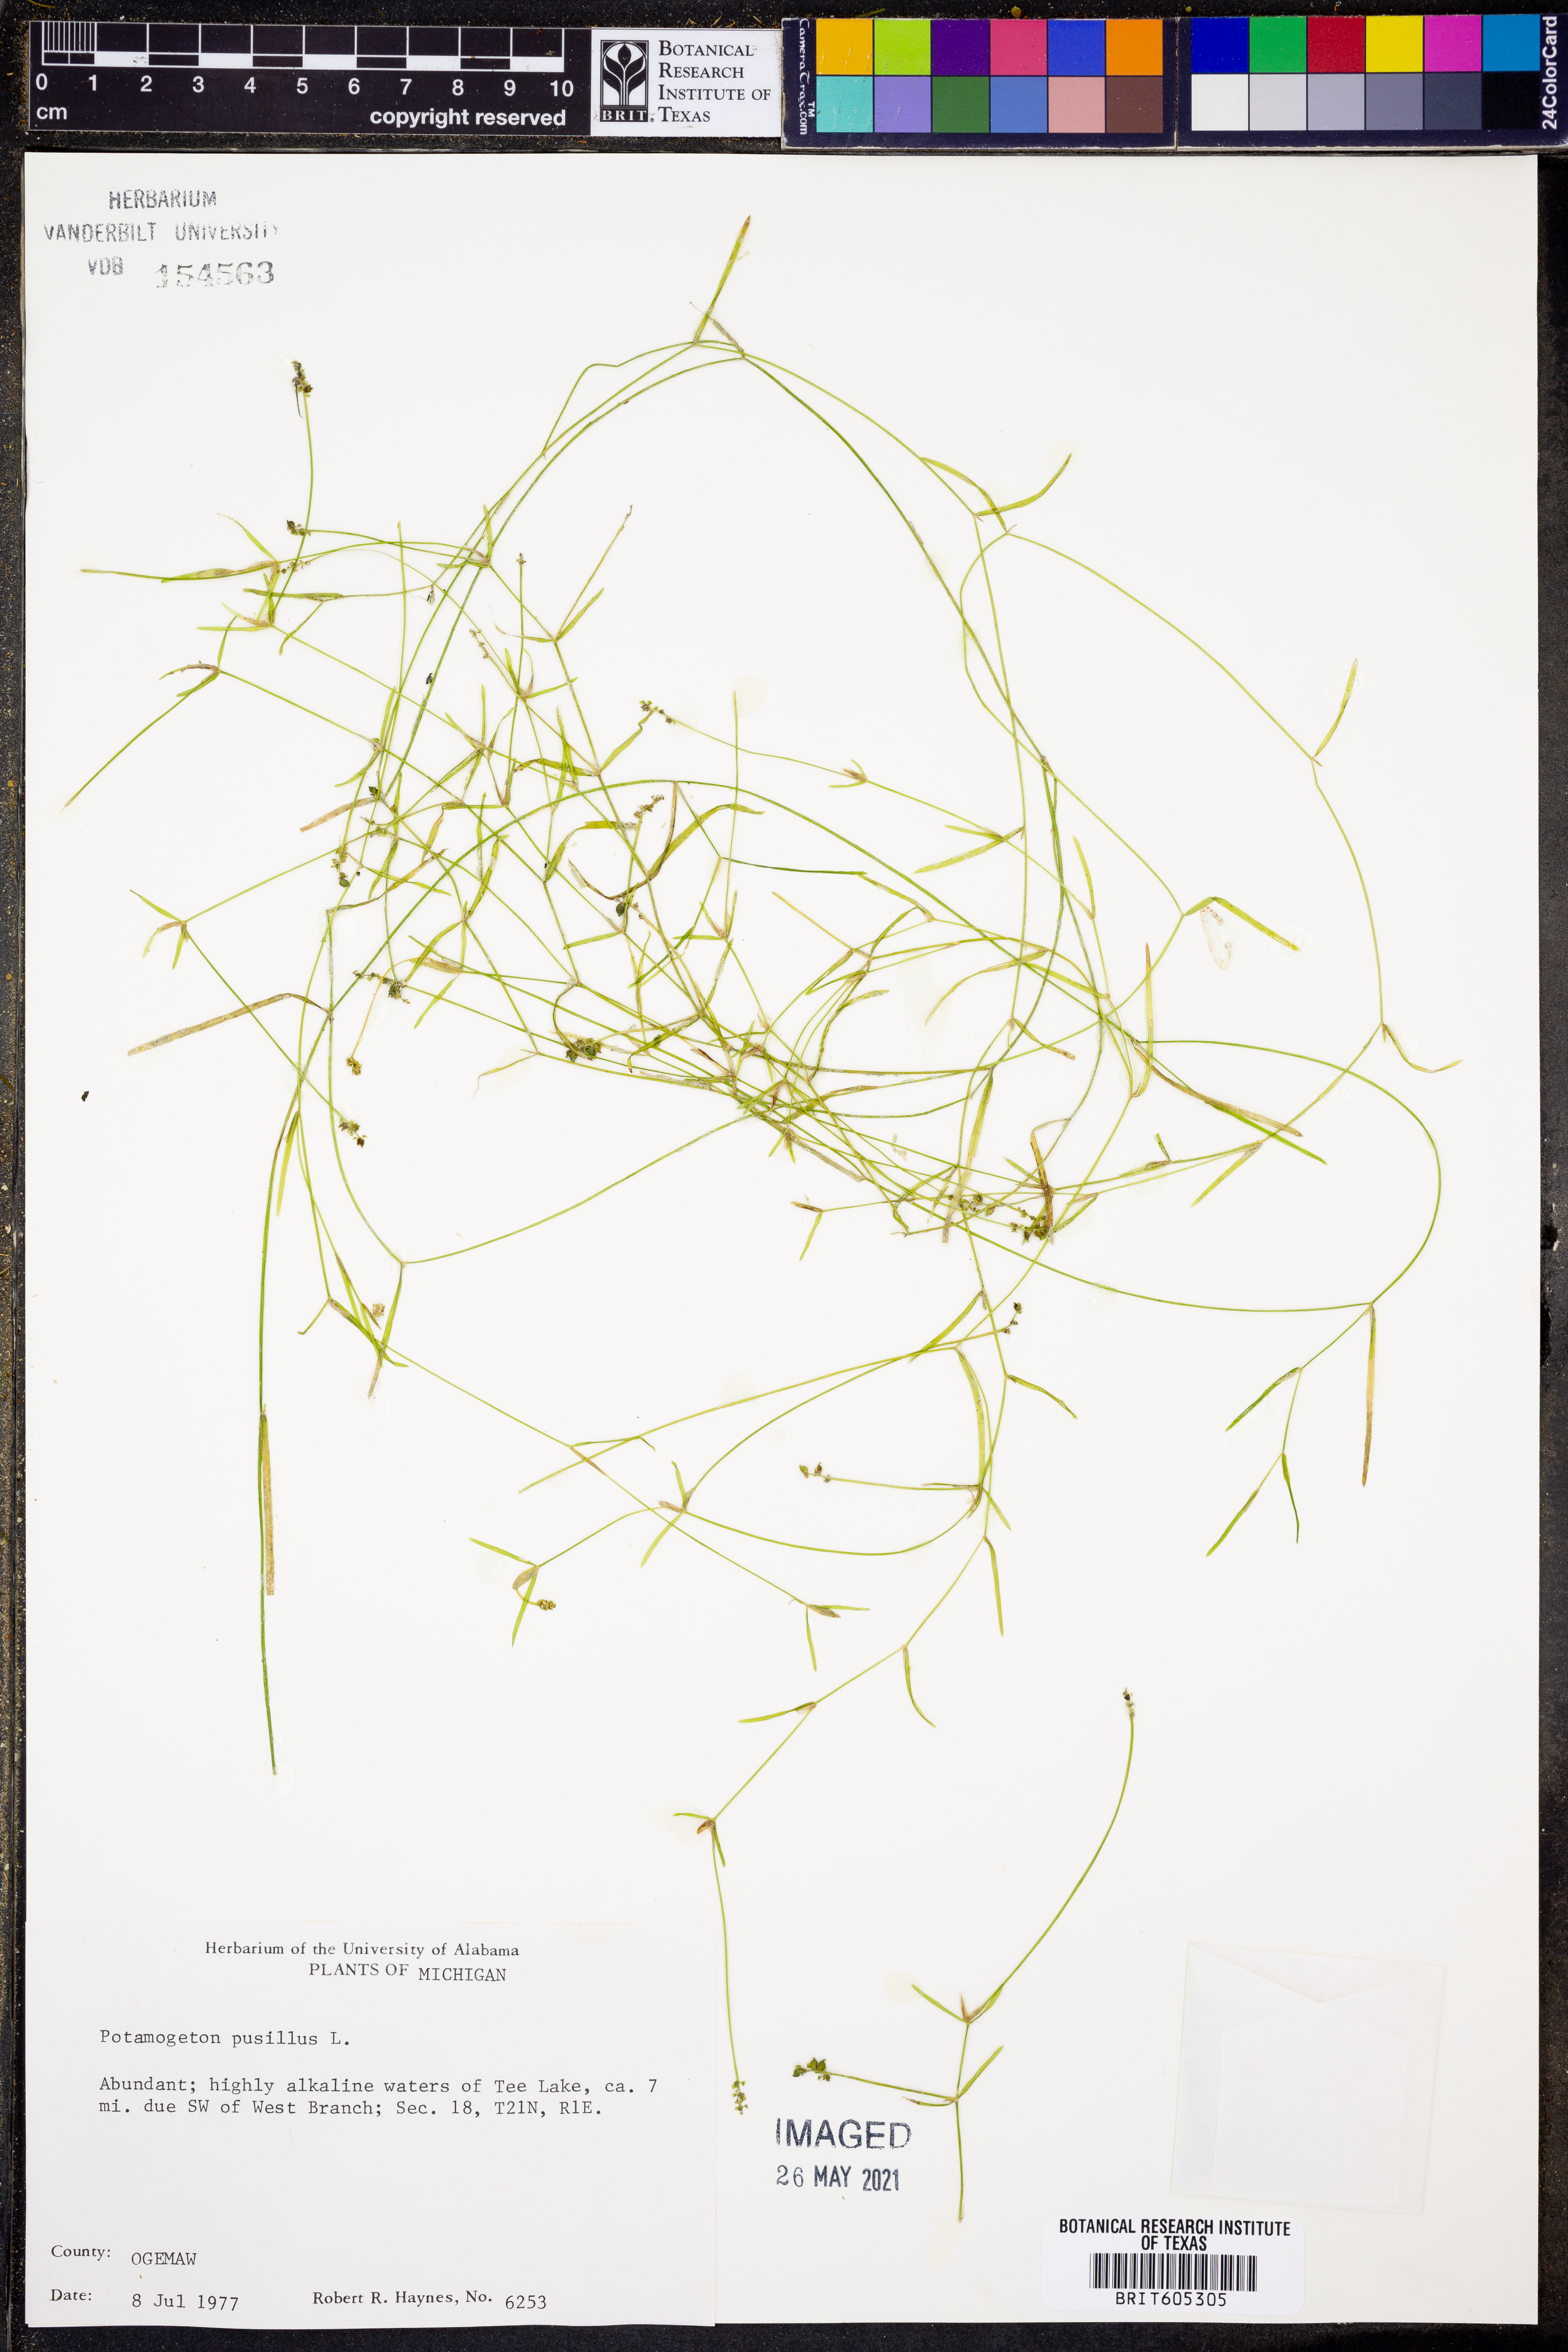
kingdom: Plantae
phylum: Tracheophyta
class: Liliopsida
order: Alismatales
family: Potamogetonaceae
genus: Potamogeton
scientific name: Potamogeton pusillus
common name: Lesser pondweed
